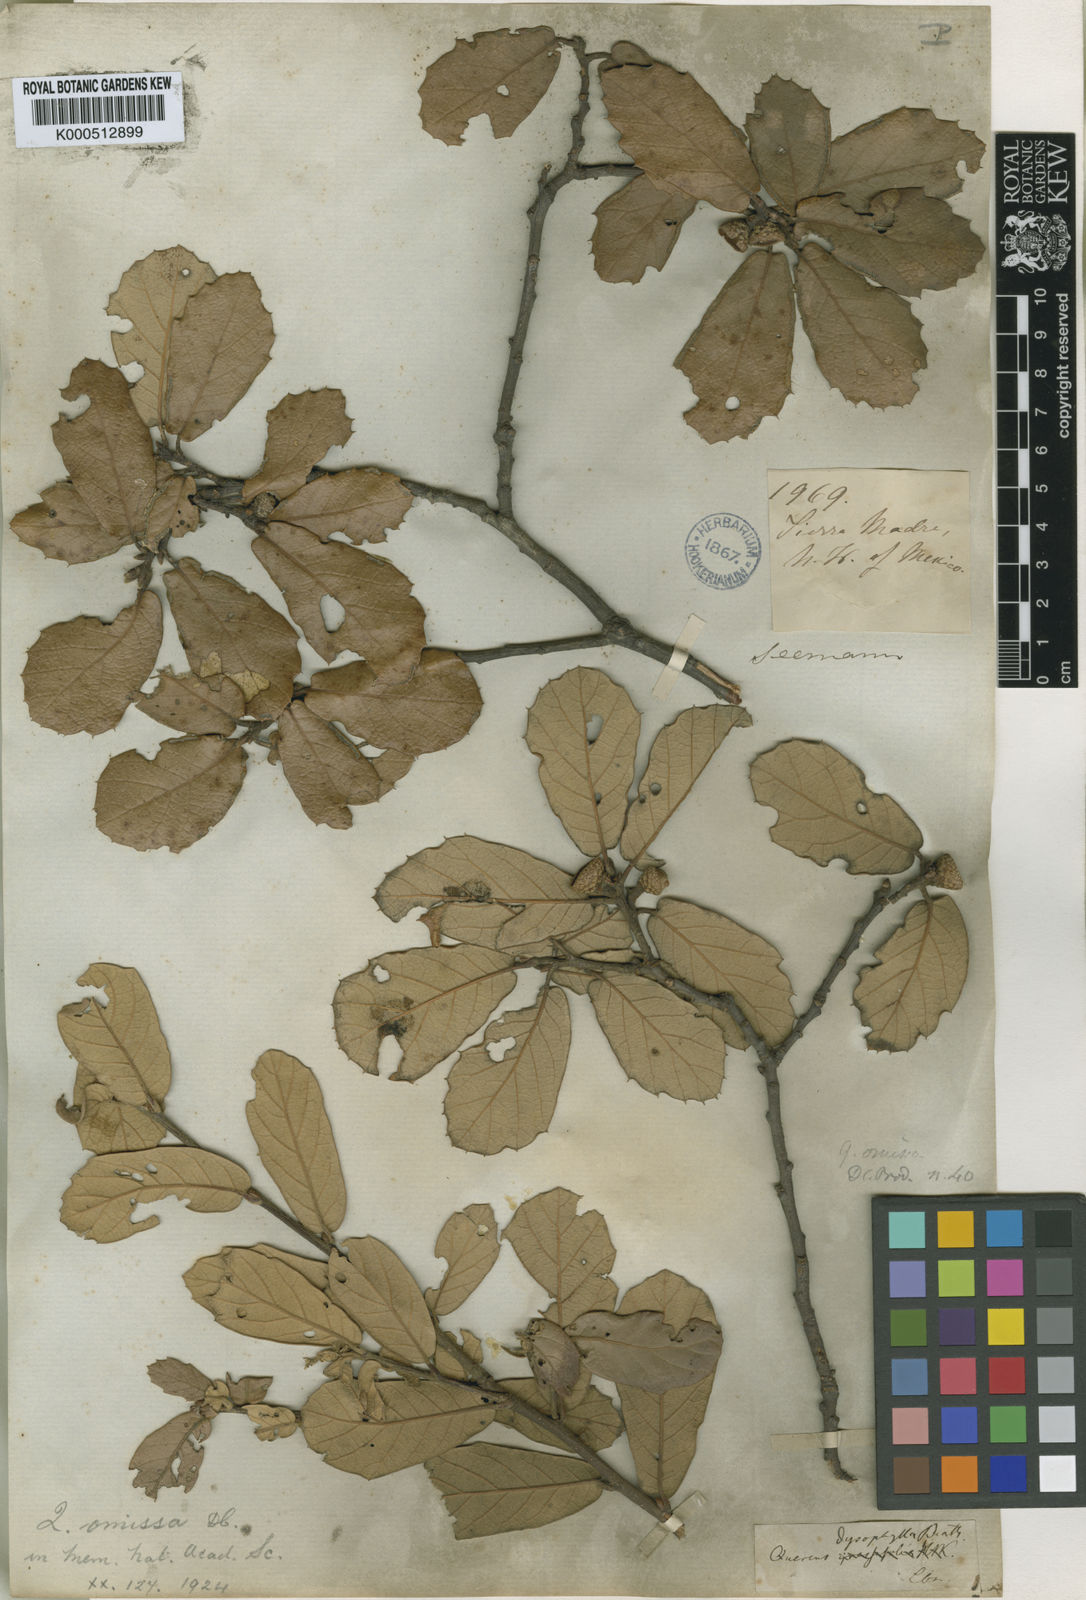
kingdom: Plantae
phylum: Tracheophyta
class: Magnoliopsida
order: Fagales
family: Fagaceae
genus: Quercus
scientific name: Quercus sideroxyla
